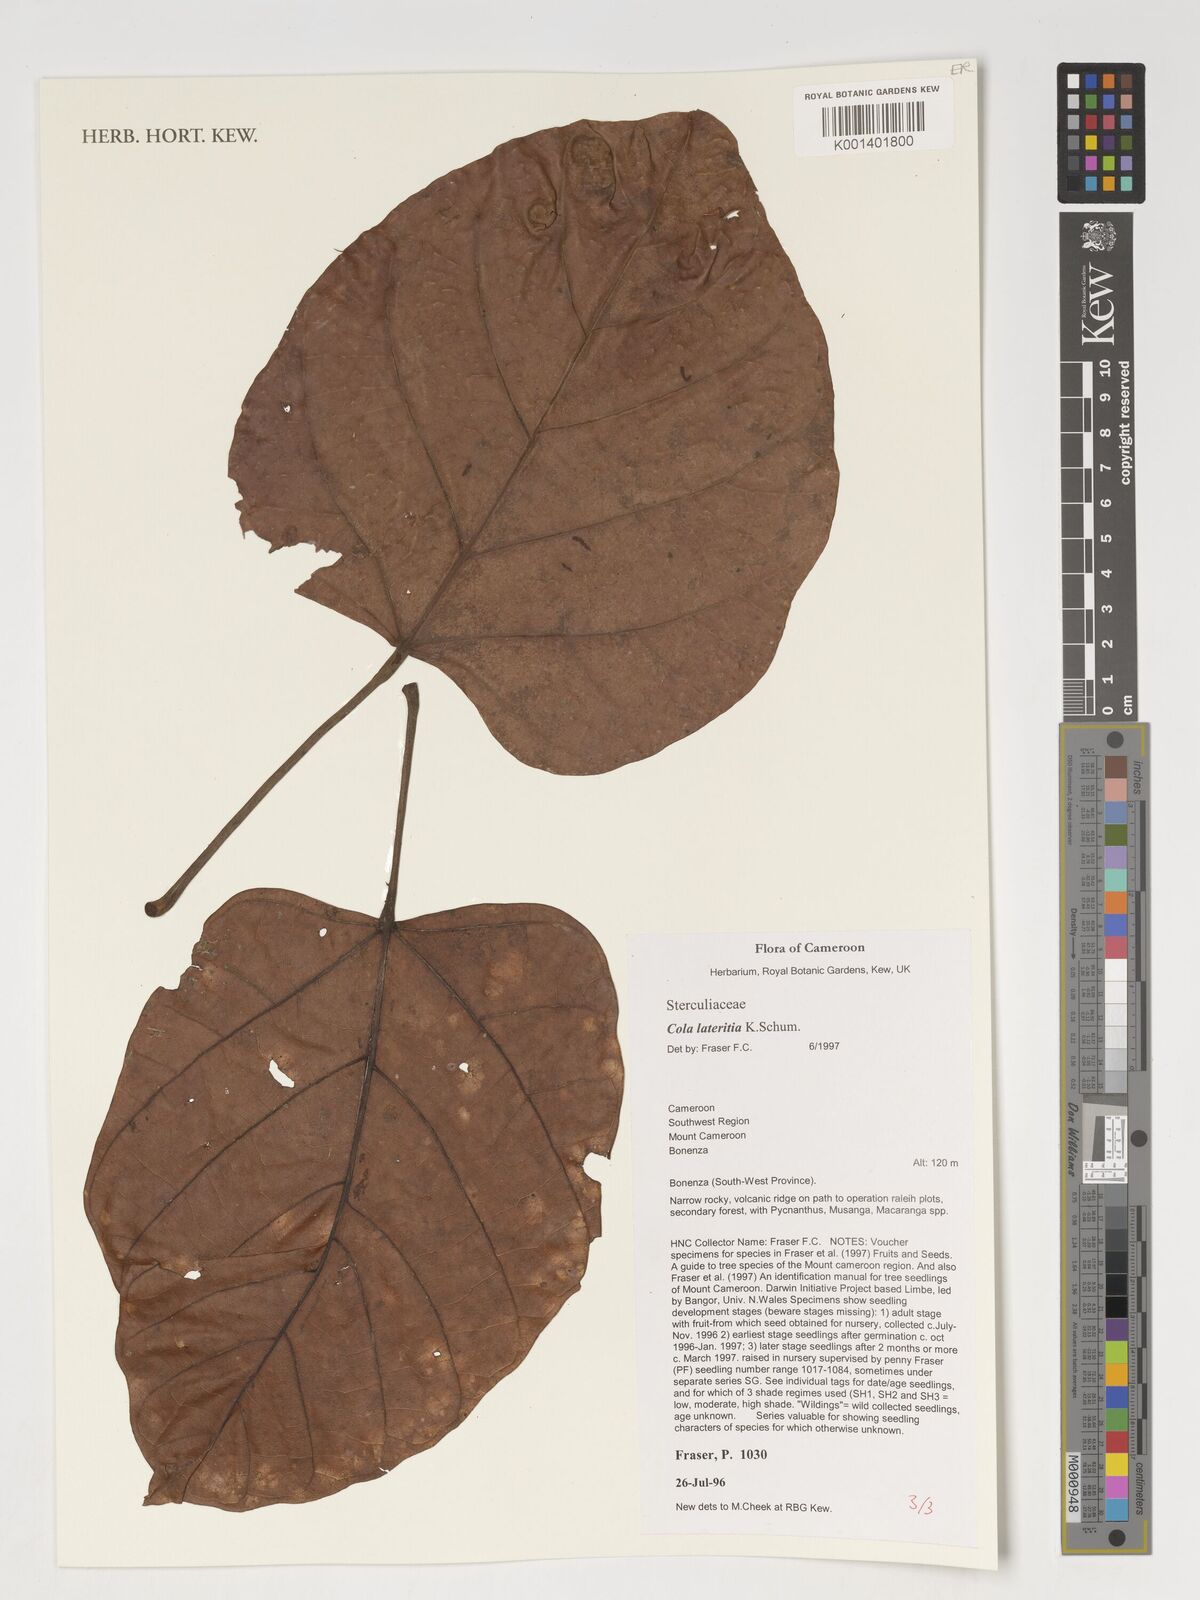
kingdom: Plantae
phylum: Tracheophyta
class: Magnoliopsida
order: Malvales
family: Malvaceae
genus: Cola
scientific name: Cola lateritia
